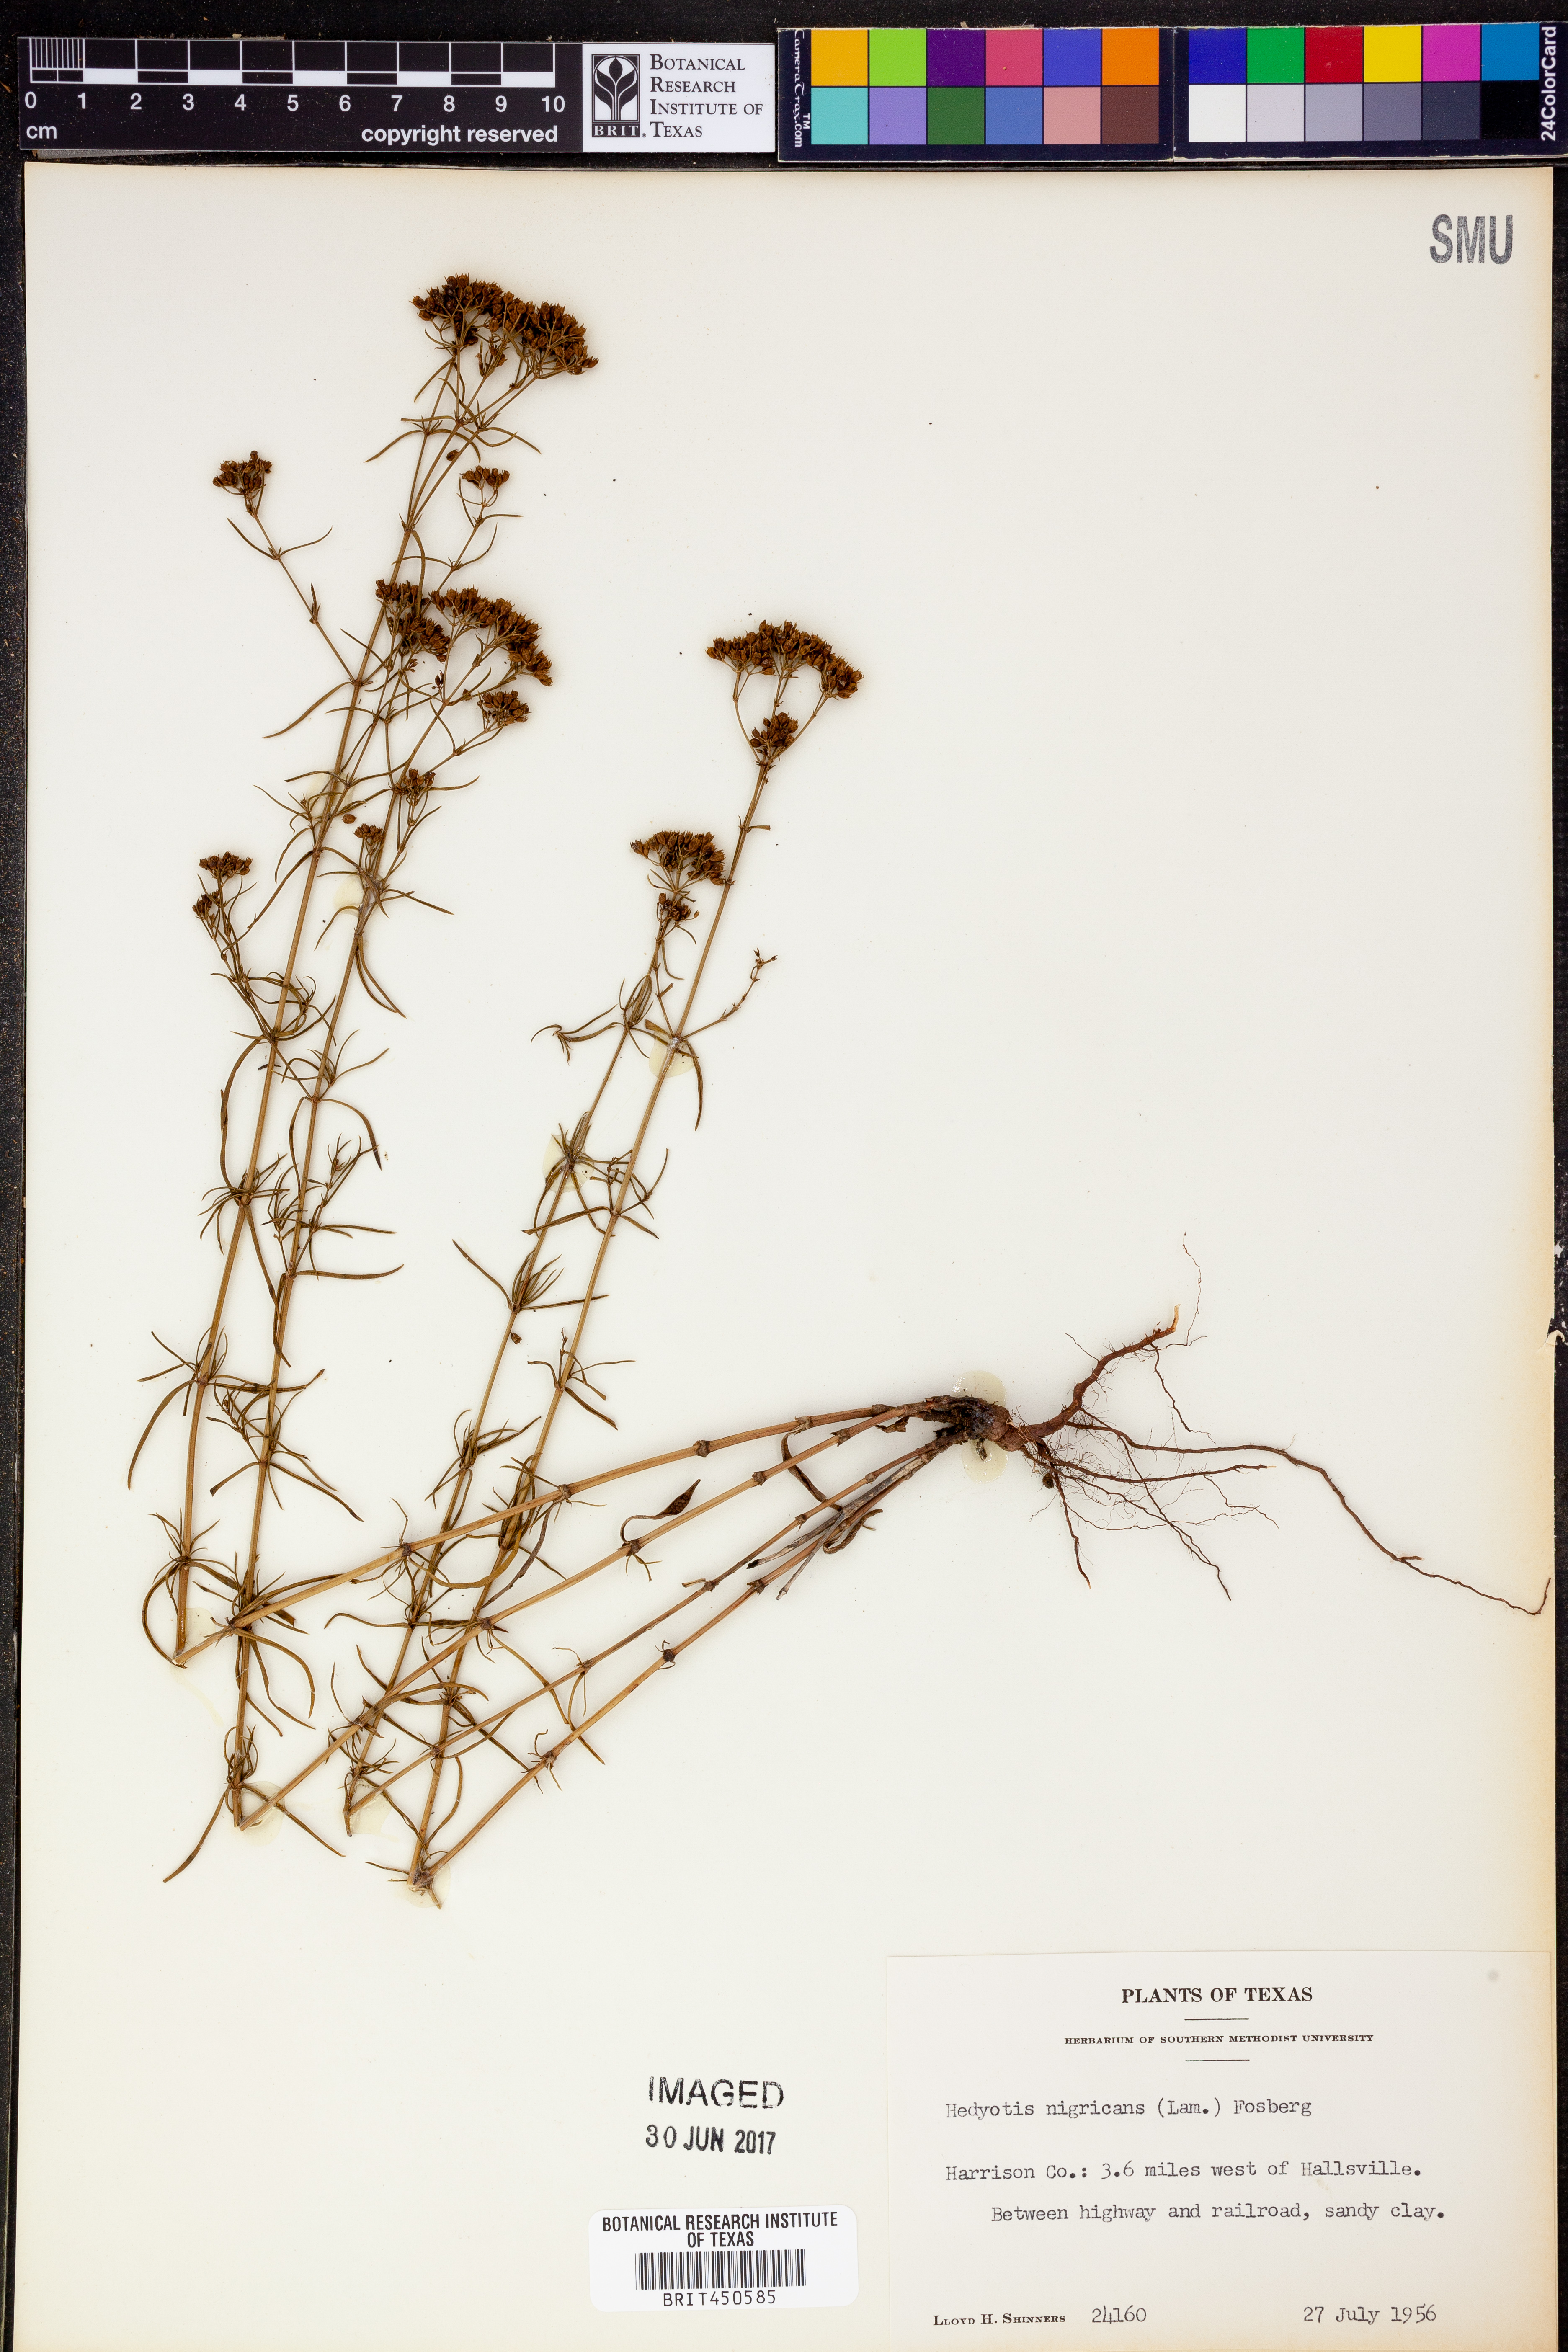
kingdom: Plantae
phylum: Tracheophyta
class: Magnoliopsida
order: Gentianales
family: Rubiaceae
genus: Stenaria
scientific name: Stenaria nigricans
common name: Diamondflowers
